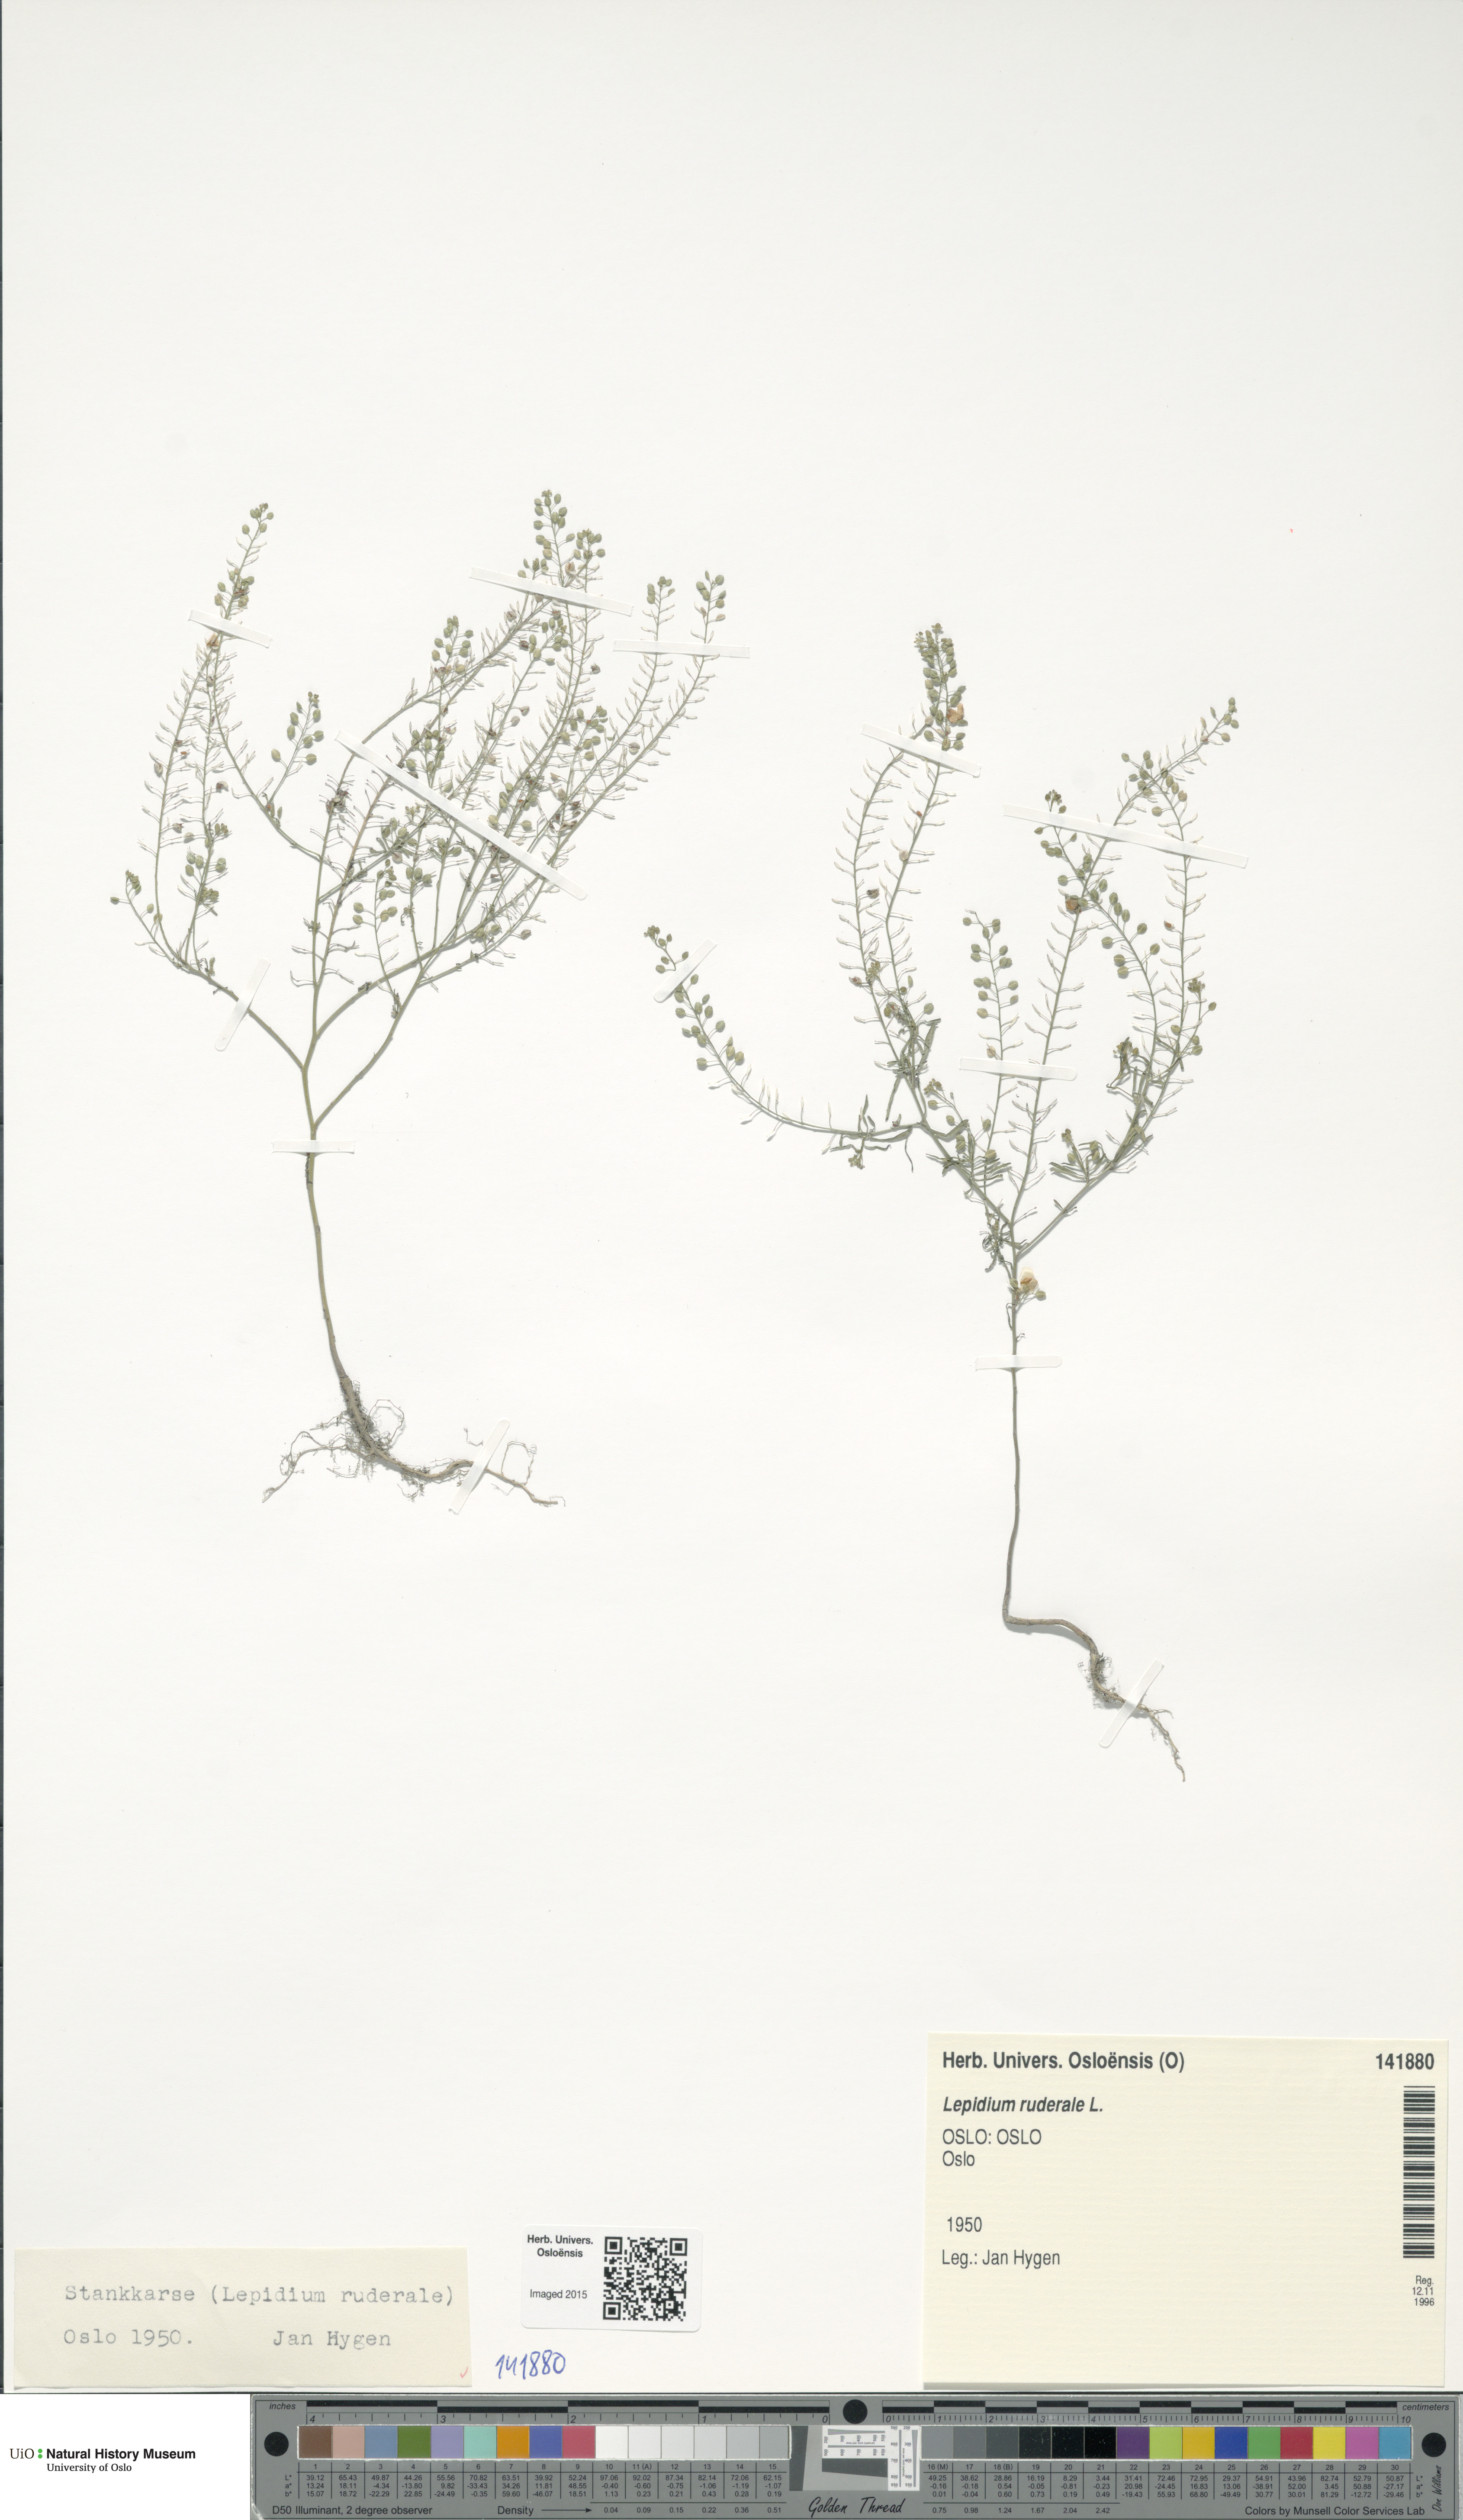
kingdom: Plantae
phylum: Tracheophyta
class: Magnoliopsida
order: Brassicales
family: Brassicaceae
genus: Lepidium
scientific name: Lepidium ruderale
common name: Narrow-leaved pepperwort
